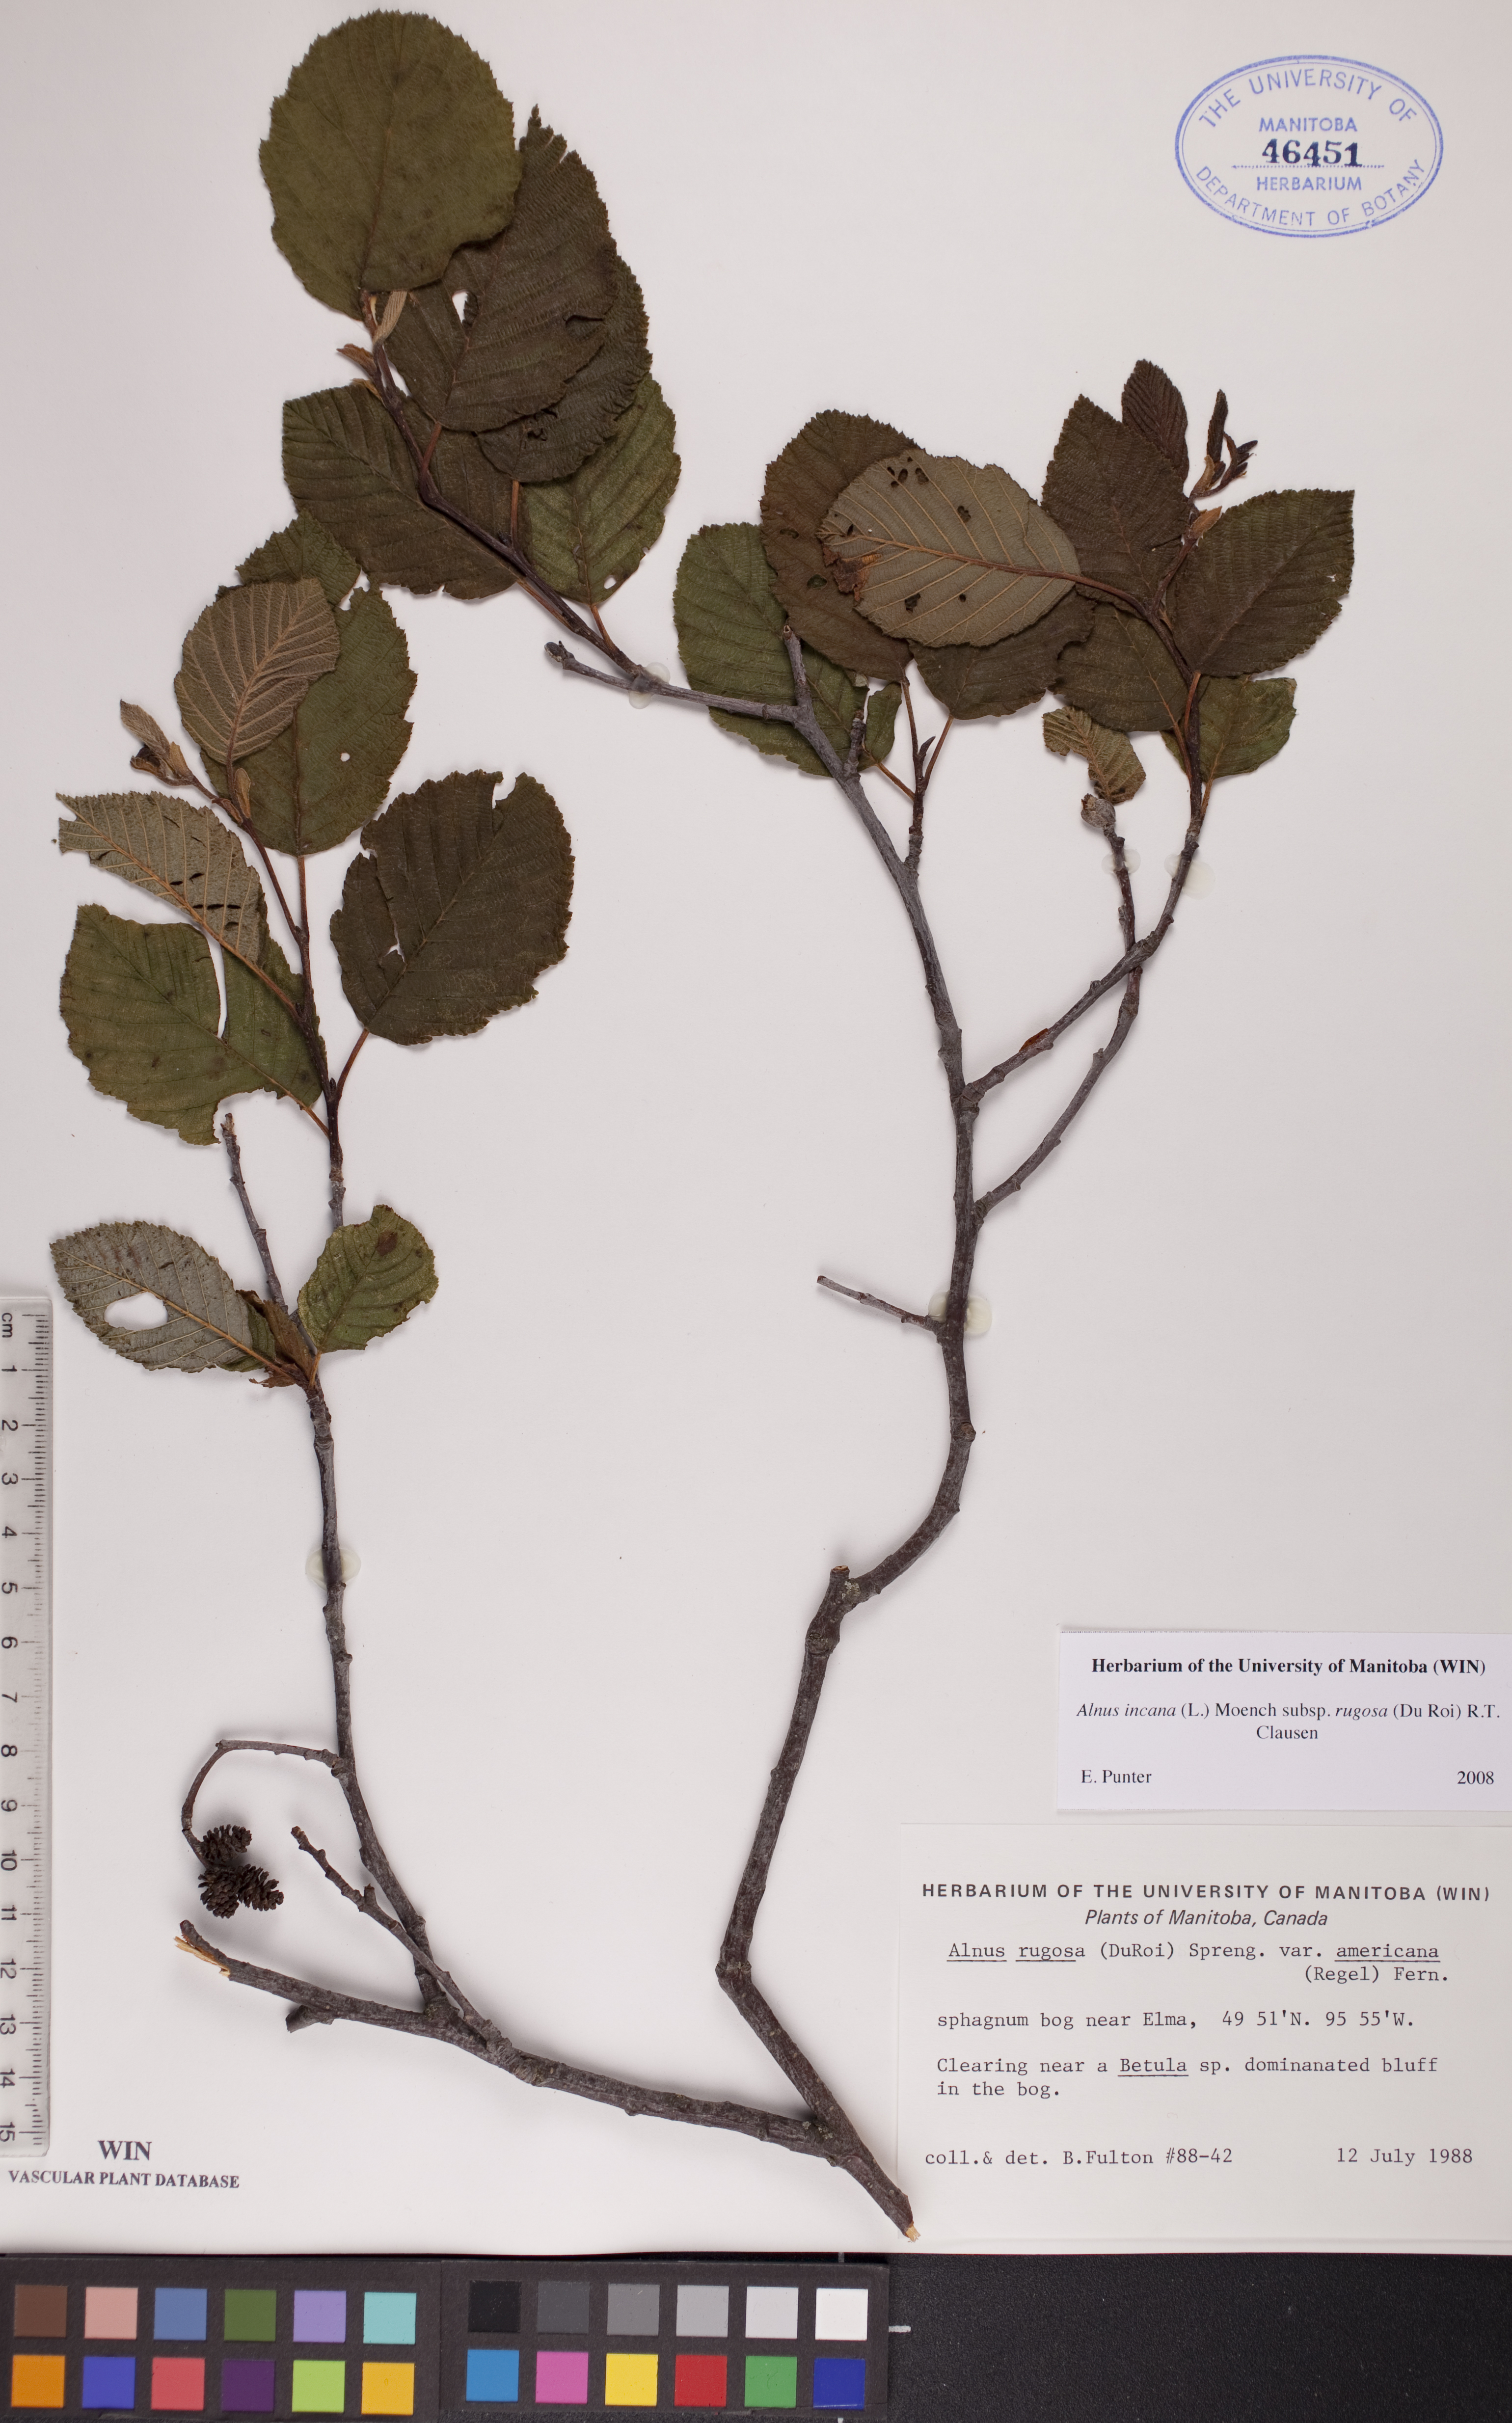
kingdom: Plantae
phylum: Tracheophyta
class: Magnoliopsida
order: Fagales
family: Betulaceae
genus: Alnus
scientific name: Alnus incana
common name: Grey alder
